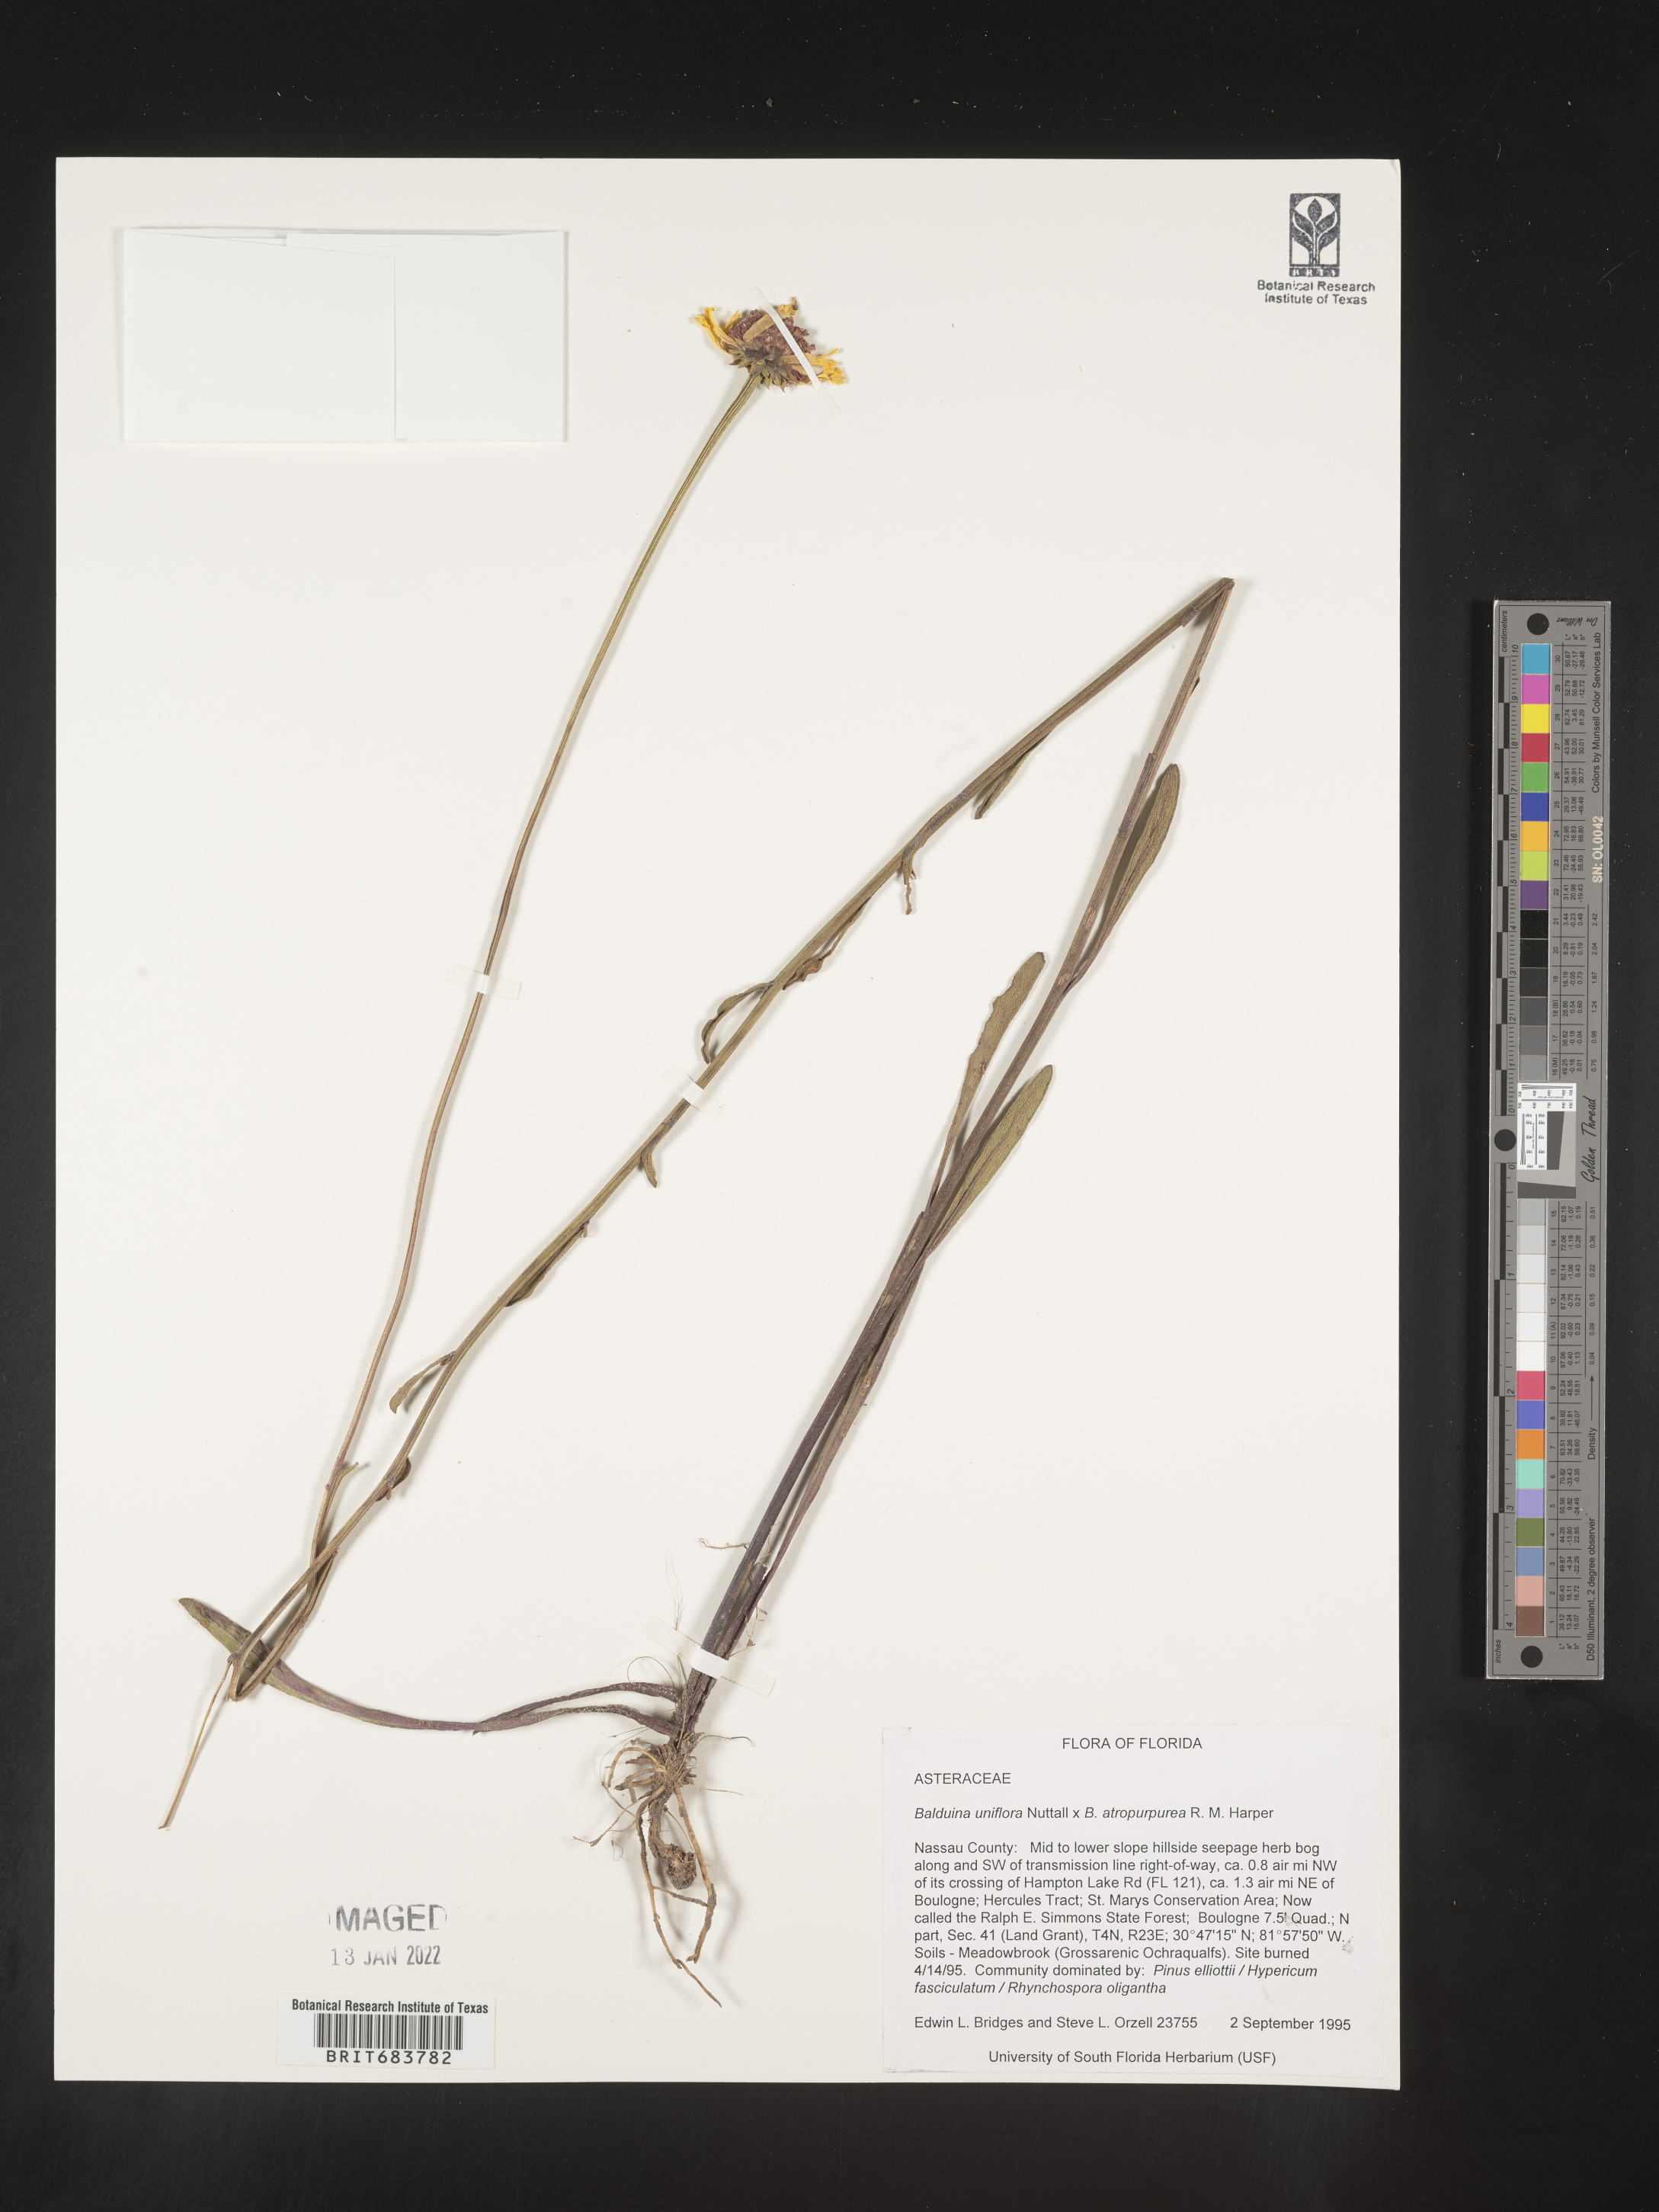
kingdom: Plantae
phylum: Tracheophyta
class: Magnoliopsida
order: Asterales
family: Asteraceae
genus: Balduina
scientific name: Balduina uniflora
